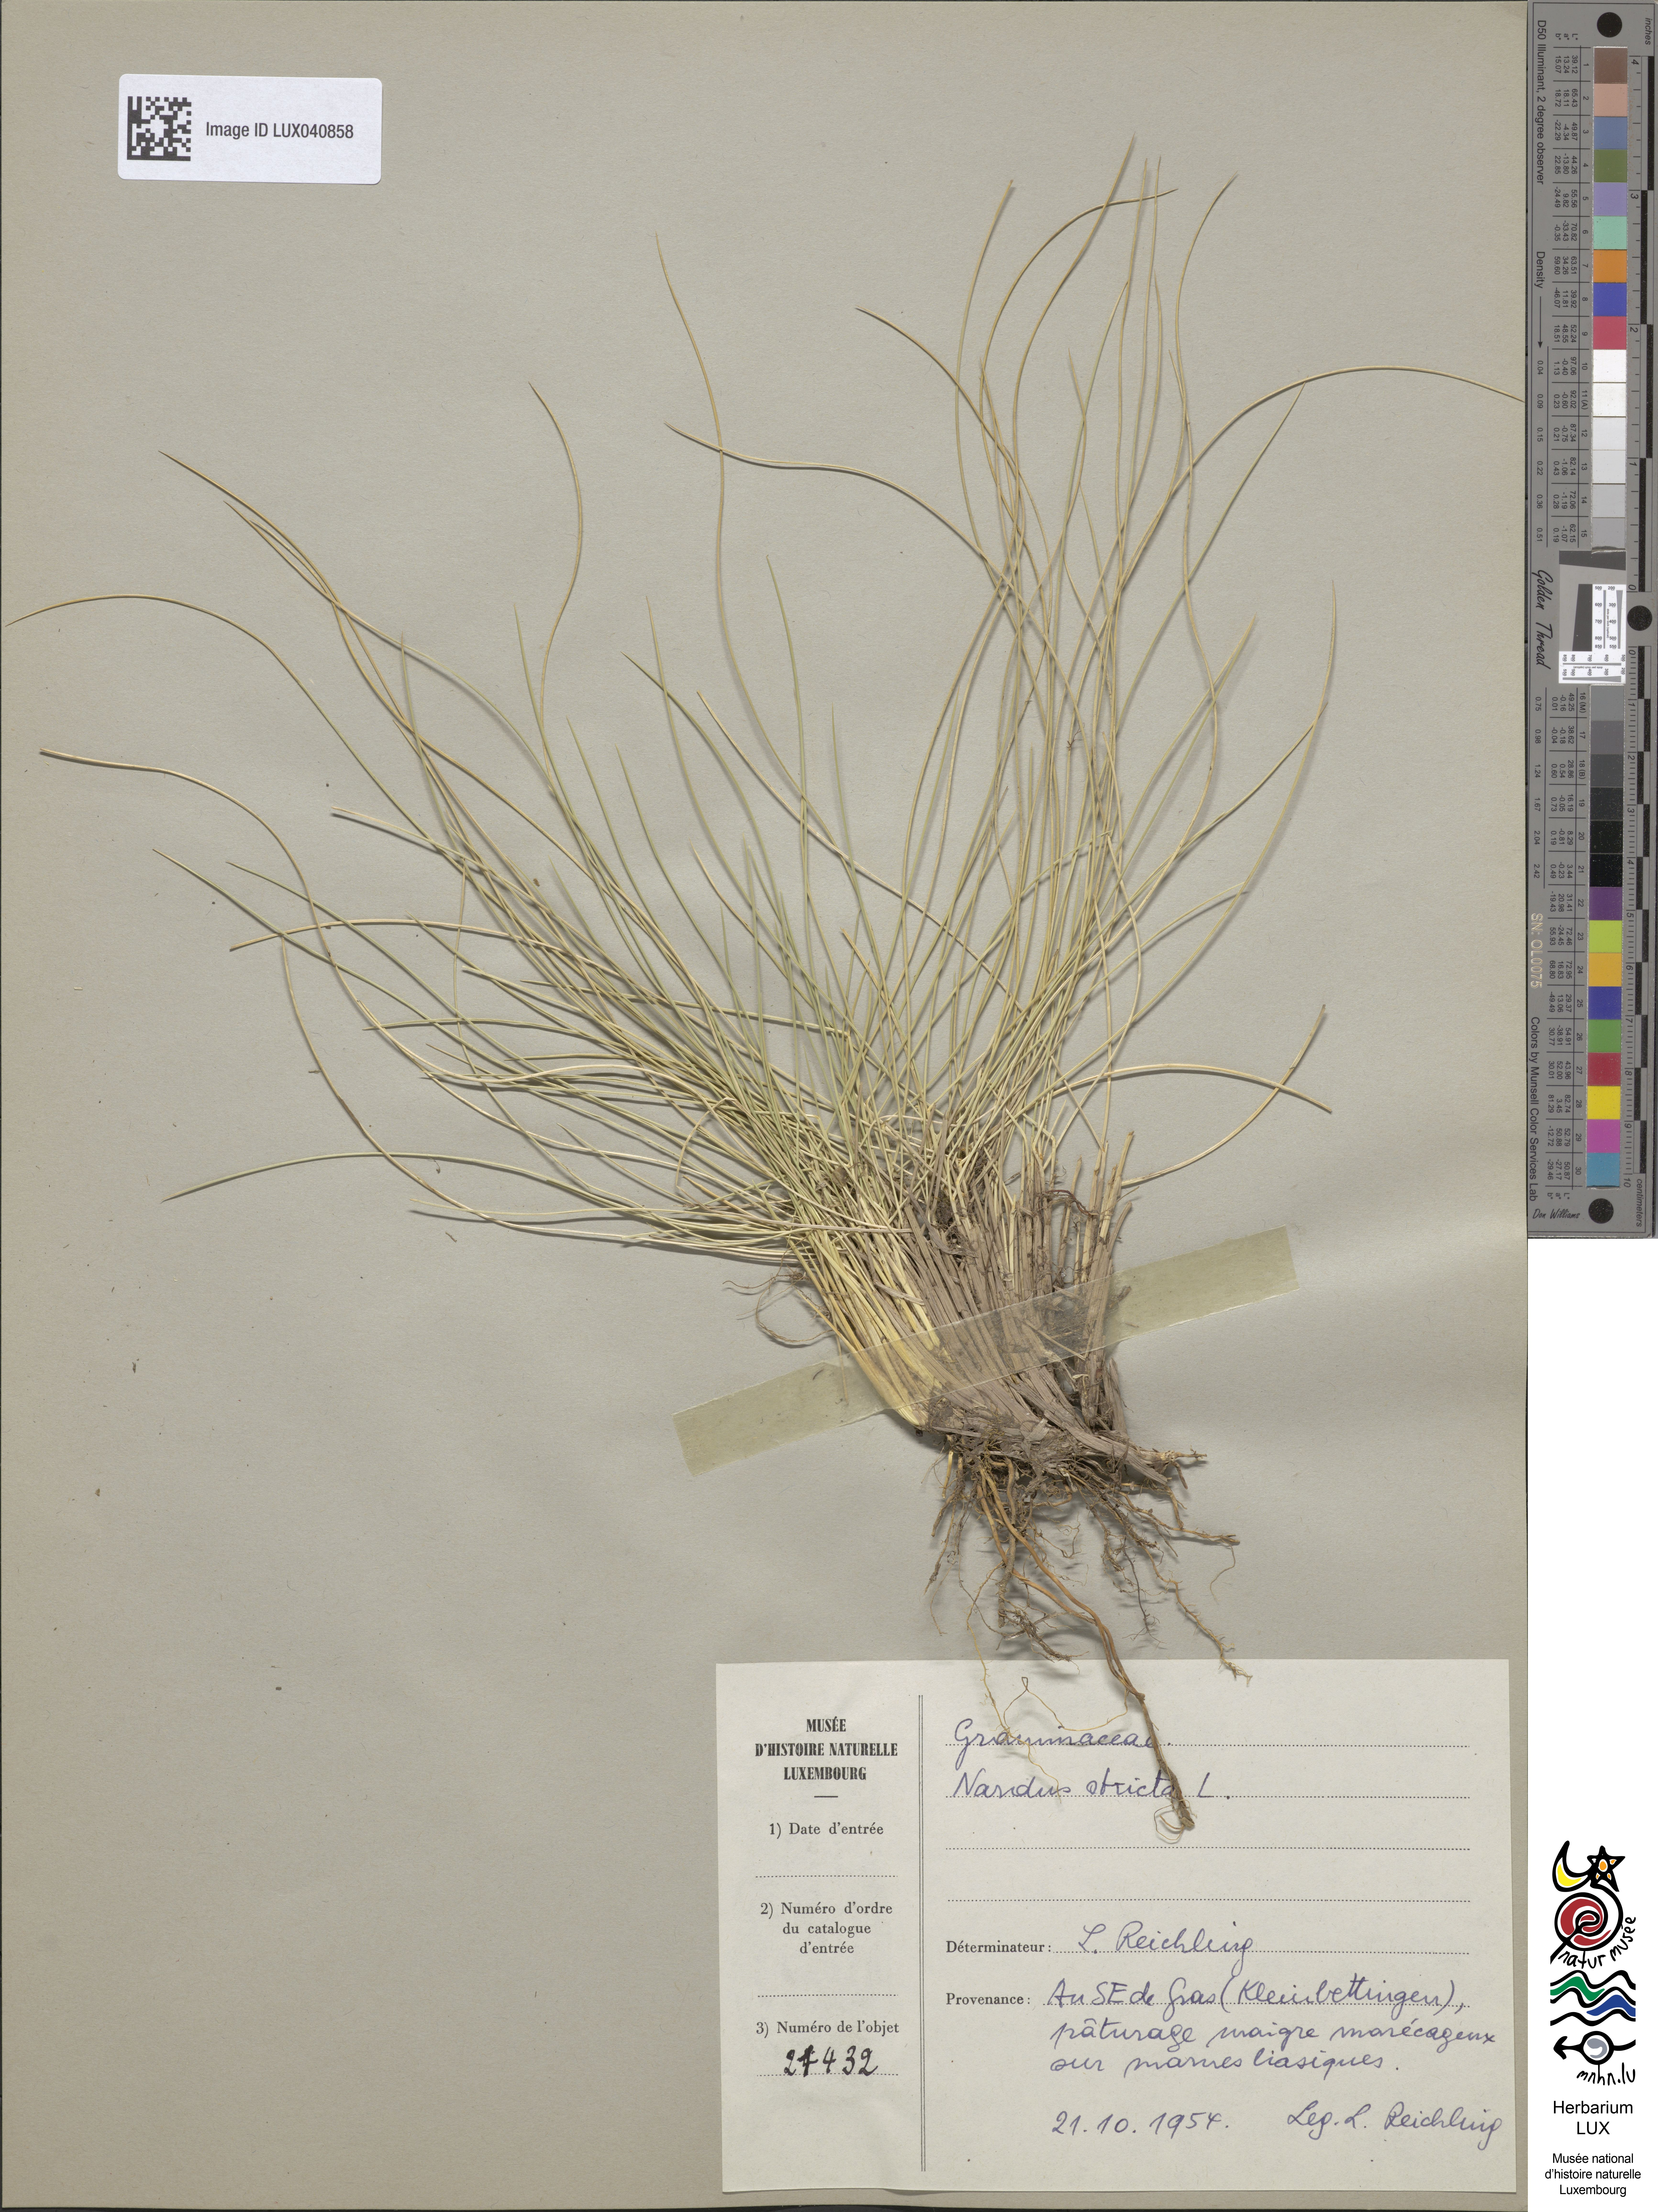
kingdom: Plantae
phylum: Tracheophyta
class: Liliopsida
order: Poales
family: Poaceae
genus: Nardus
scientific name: Nardus stricta
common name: Mat-grass
